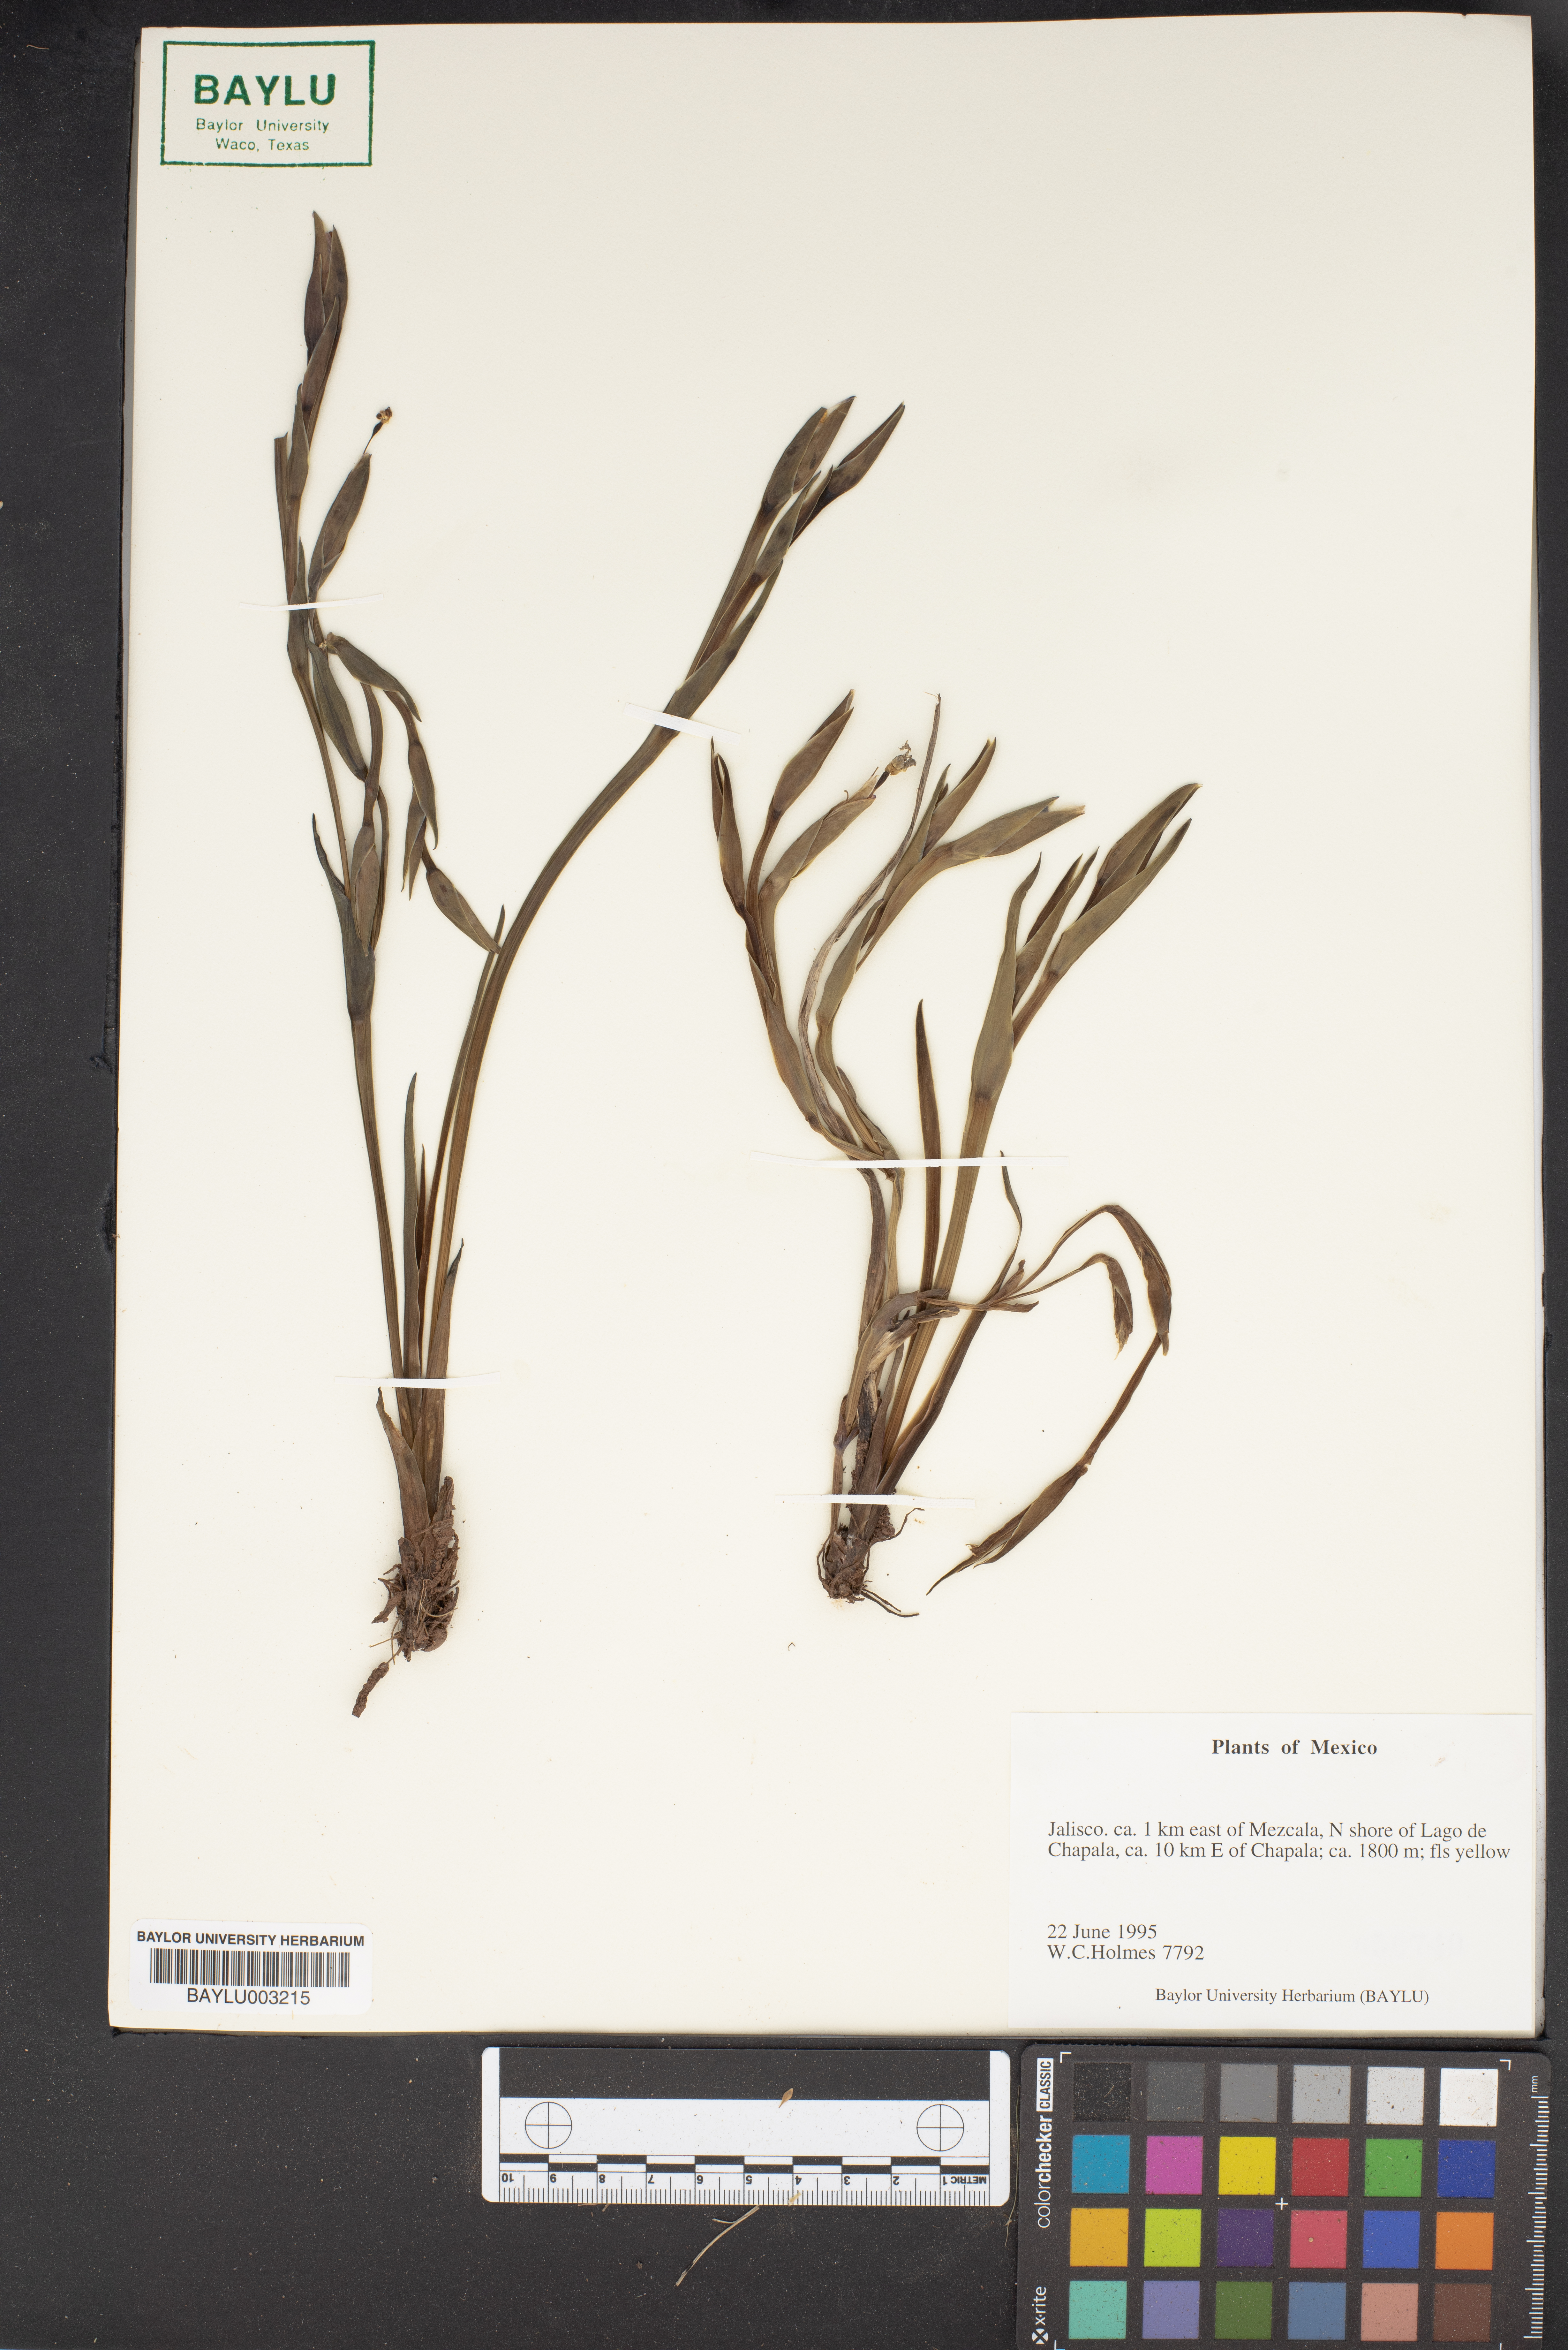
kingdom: Plantae
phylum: Tracheophyta
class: Liliopsida
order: Asparagales
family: Iridaceae
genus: Sisyrinchium
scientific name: Sisyrinchium
